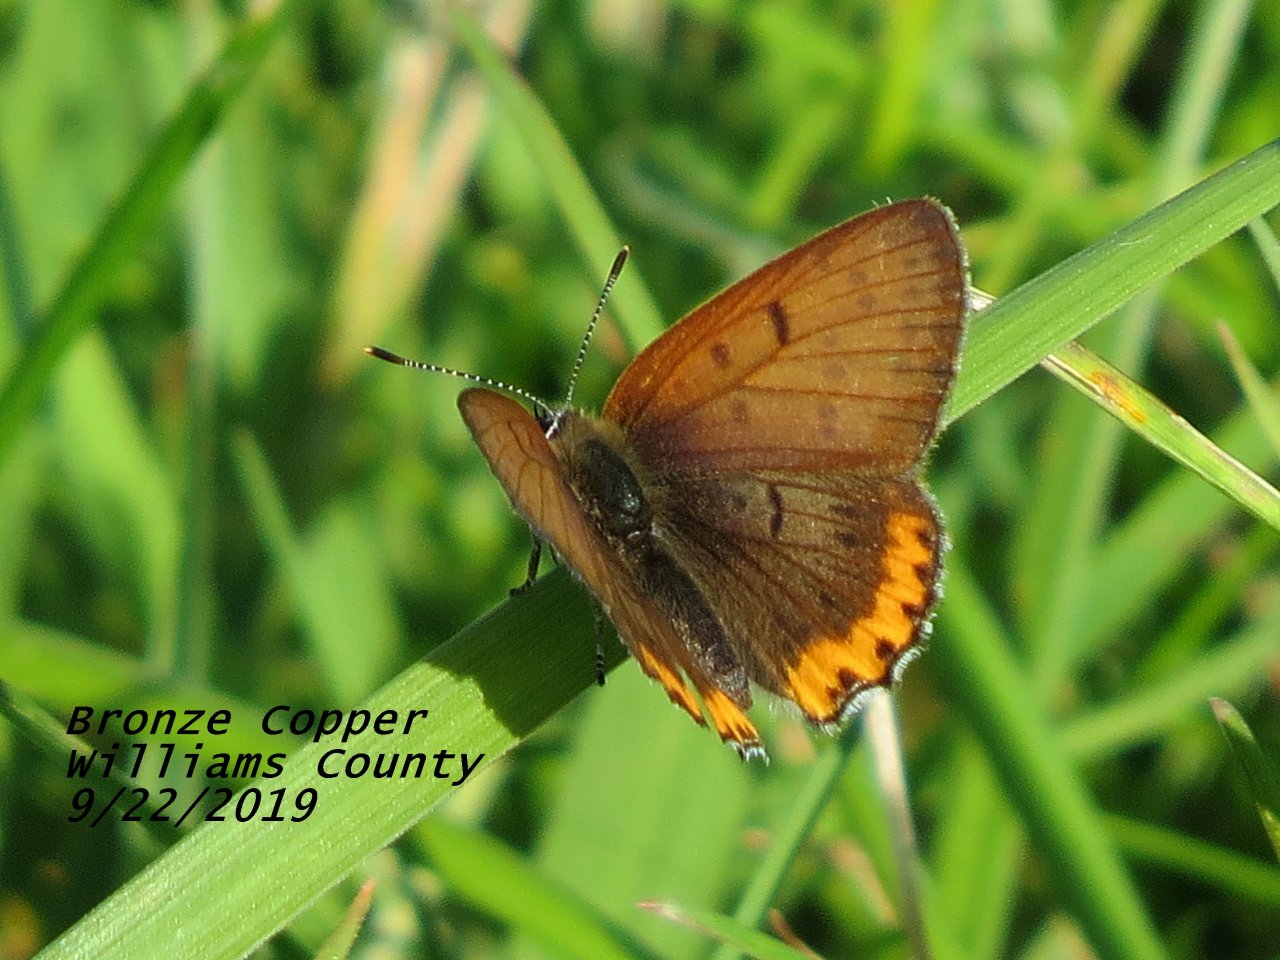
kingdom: Animalia
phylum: Arthropoda
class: Insecta
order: Lepidoptera
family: Sesiidae
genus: Sesia
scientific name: Sesia Lycaena hyllus
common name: Bronze Copper
